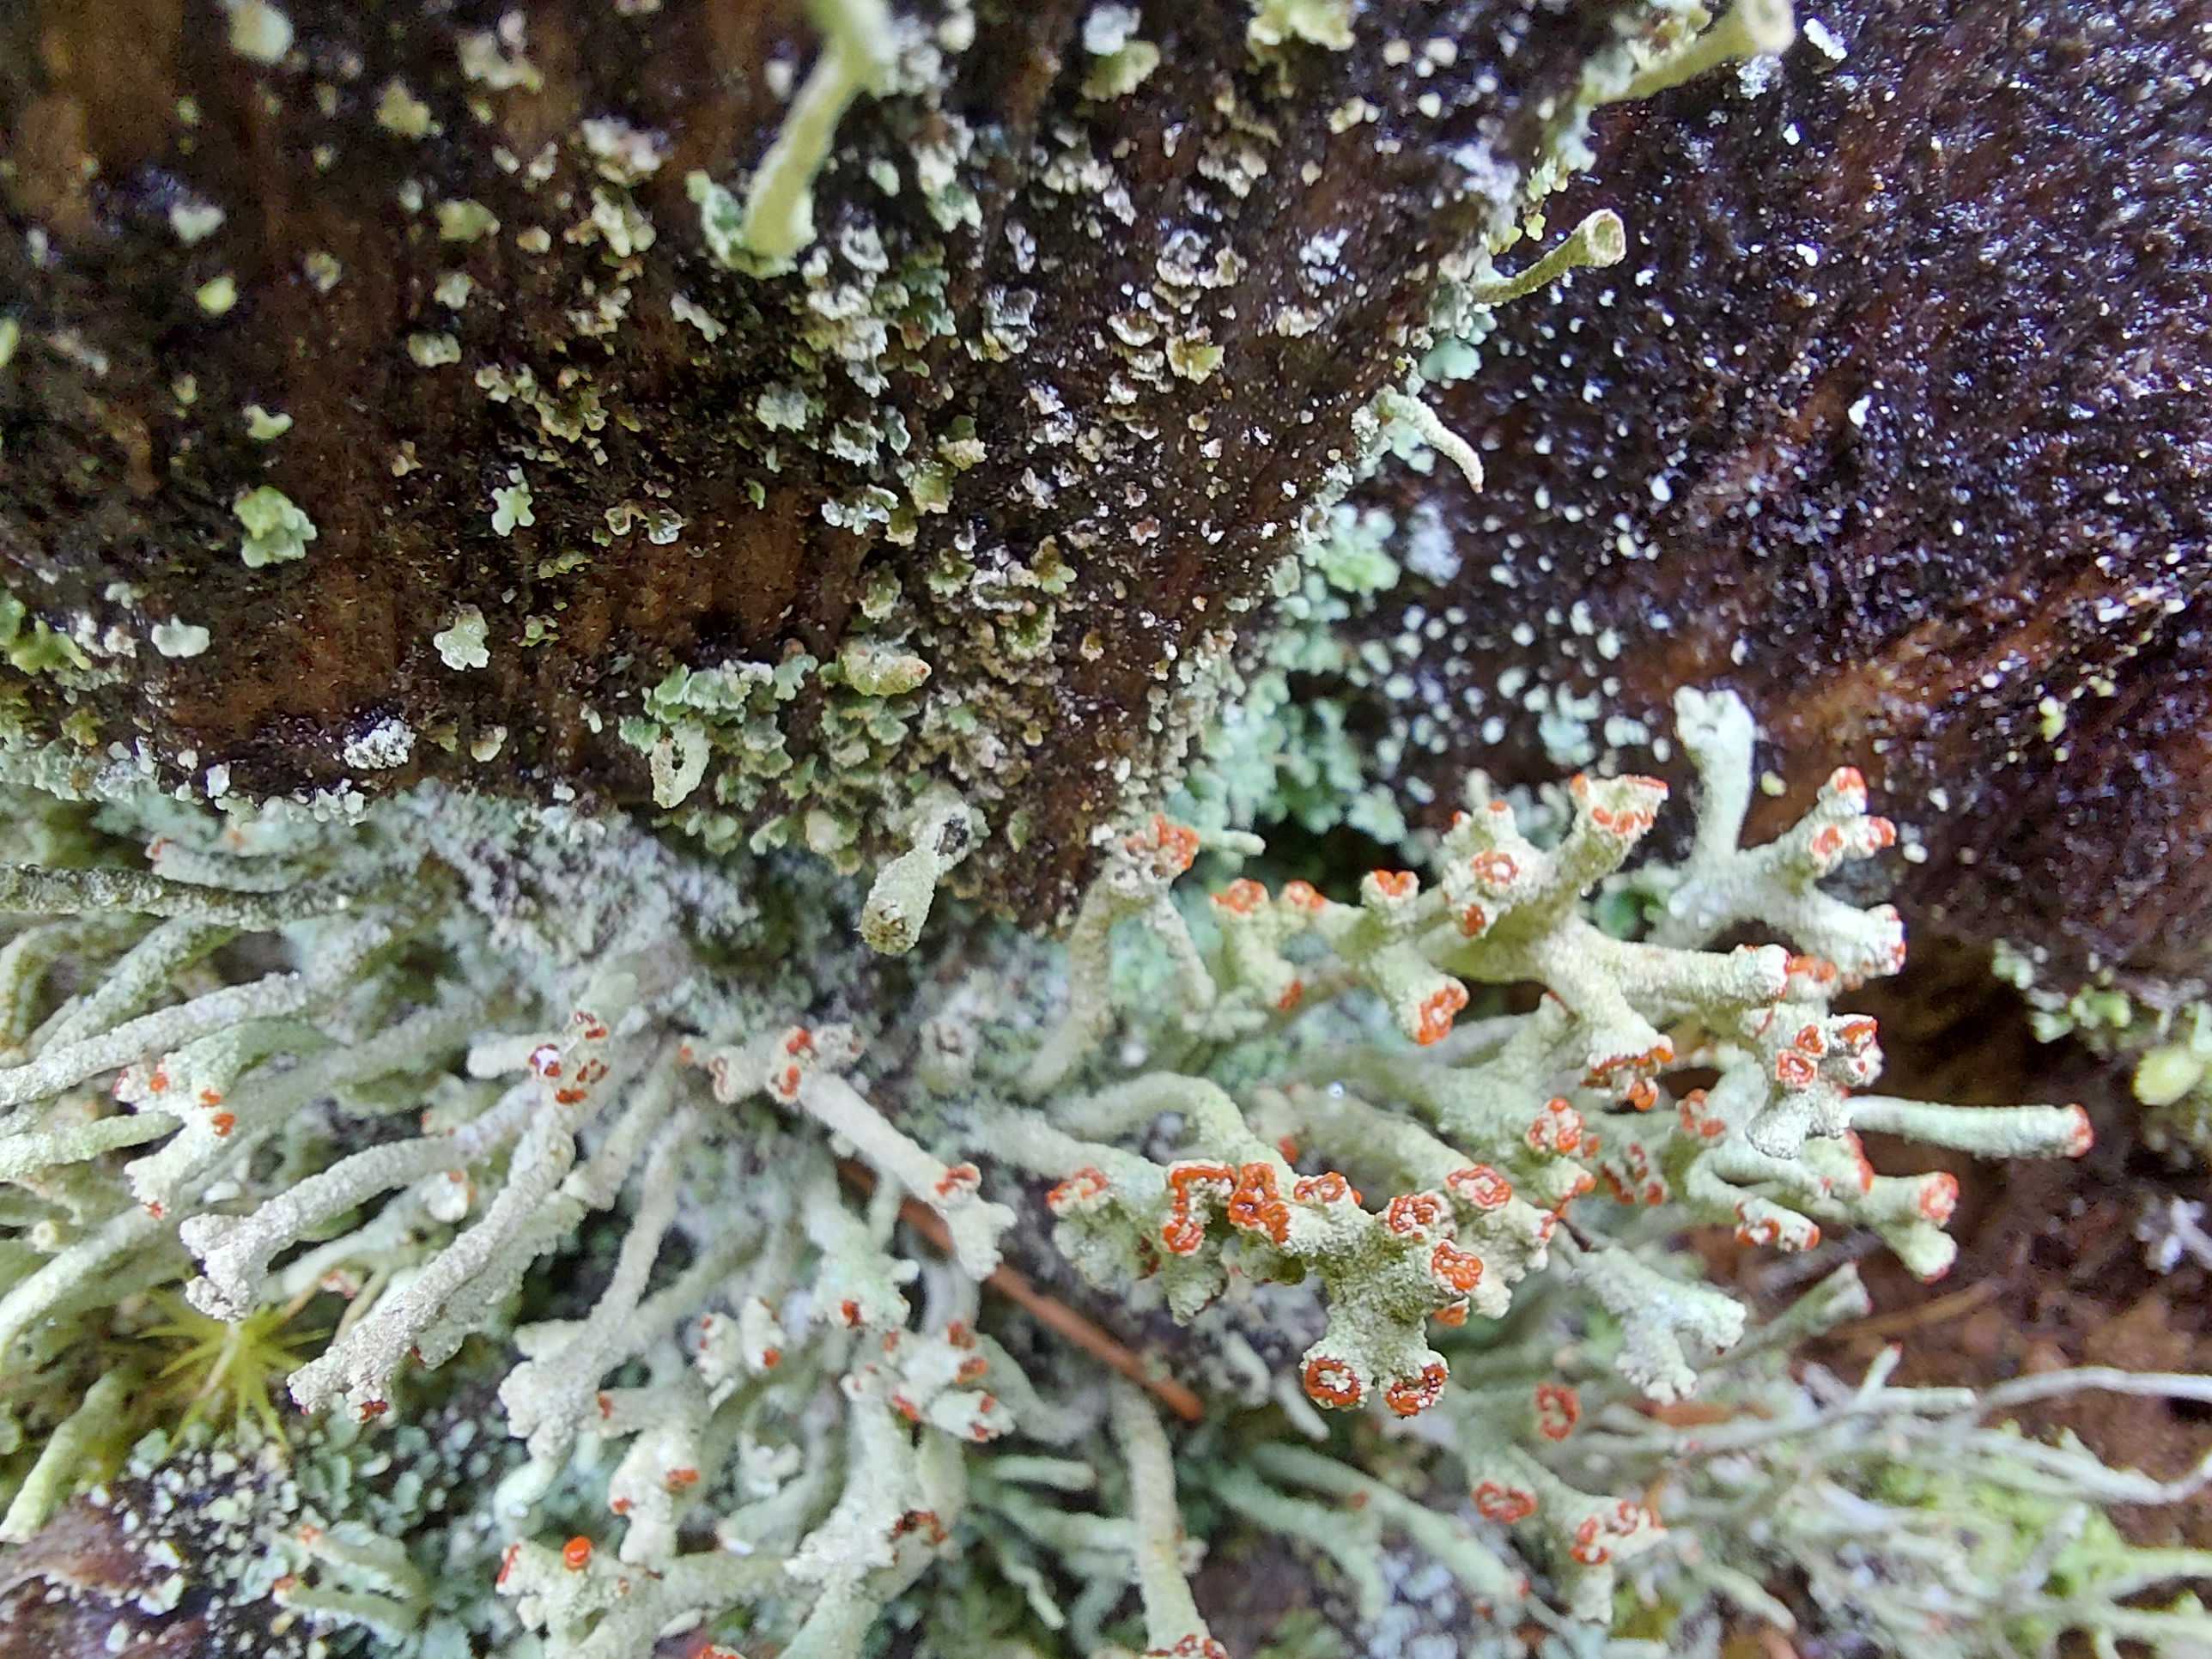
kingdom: Fungi
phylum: Ascomycota
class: Lecanoromycetes
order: Lecanorales
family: Cladoniaceae
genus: Cladonia
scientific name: Cladonia
